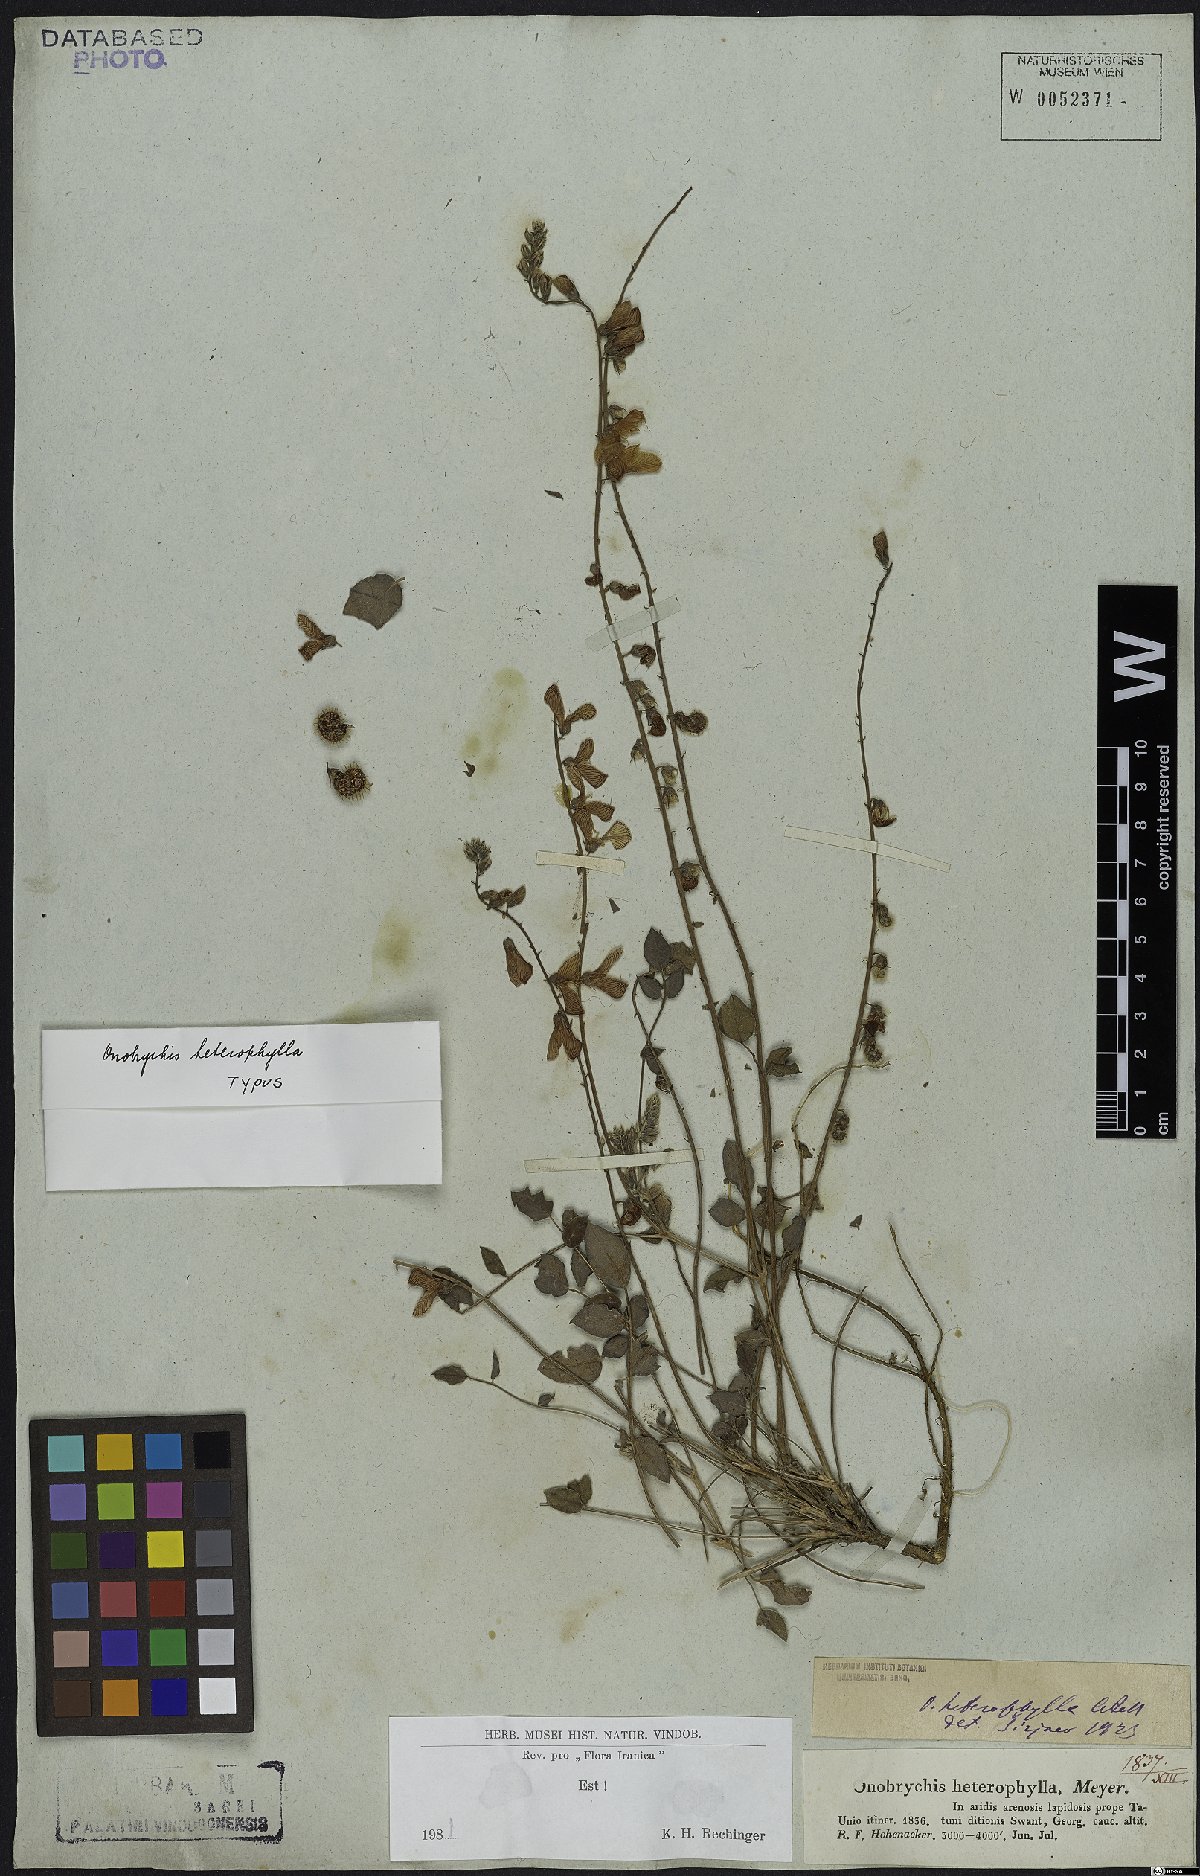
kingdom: Plantae
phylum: Tracheophyta
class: Magnoliopsida
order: Fabales
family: Fabaceae
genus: Onobrychis
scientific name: Onobrychis heterophylla
